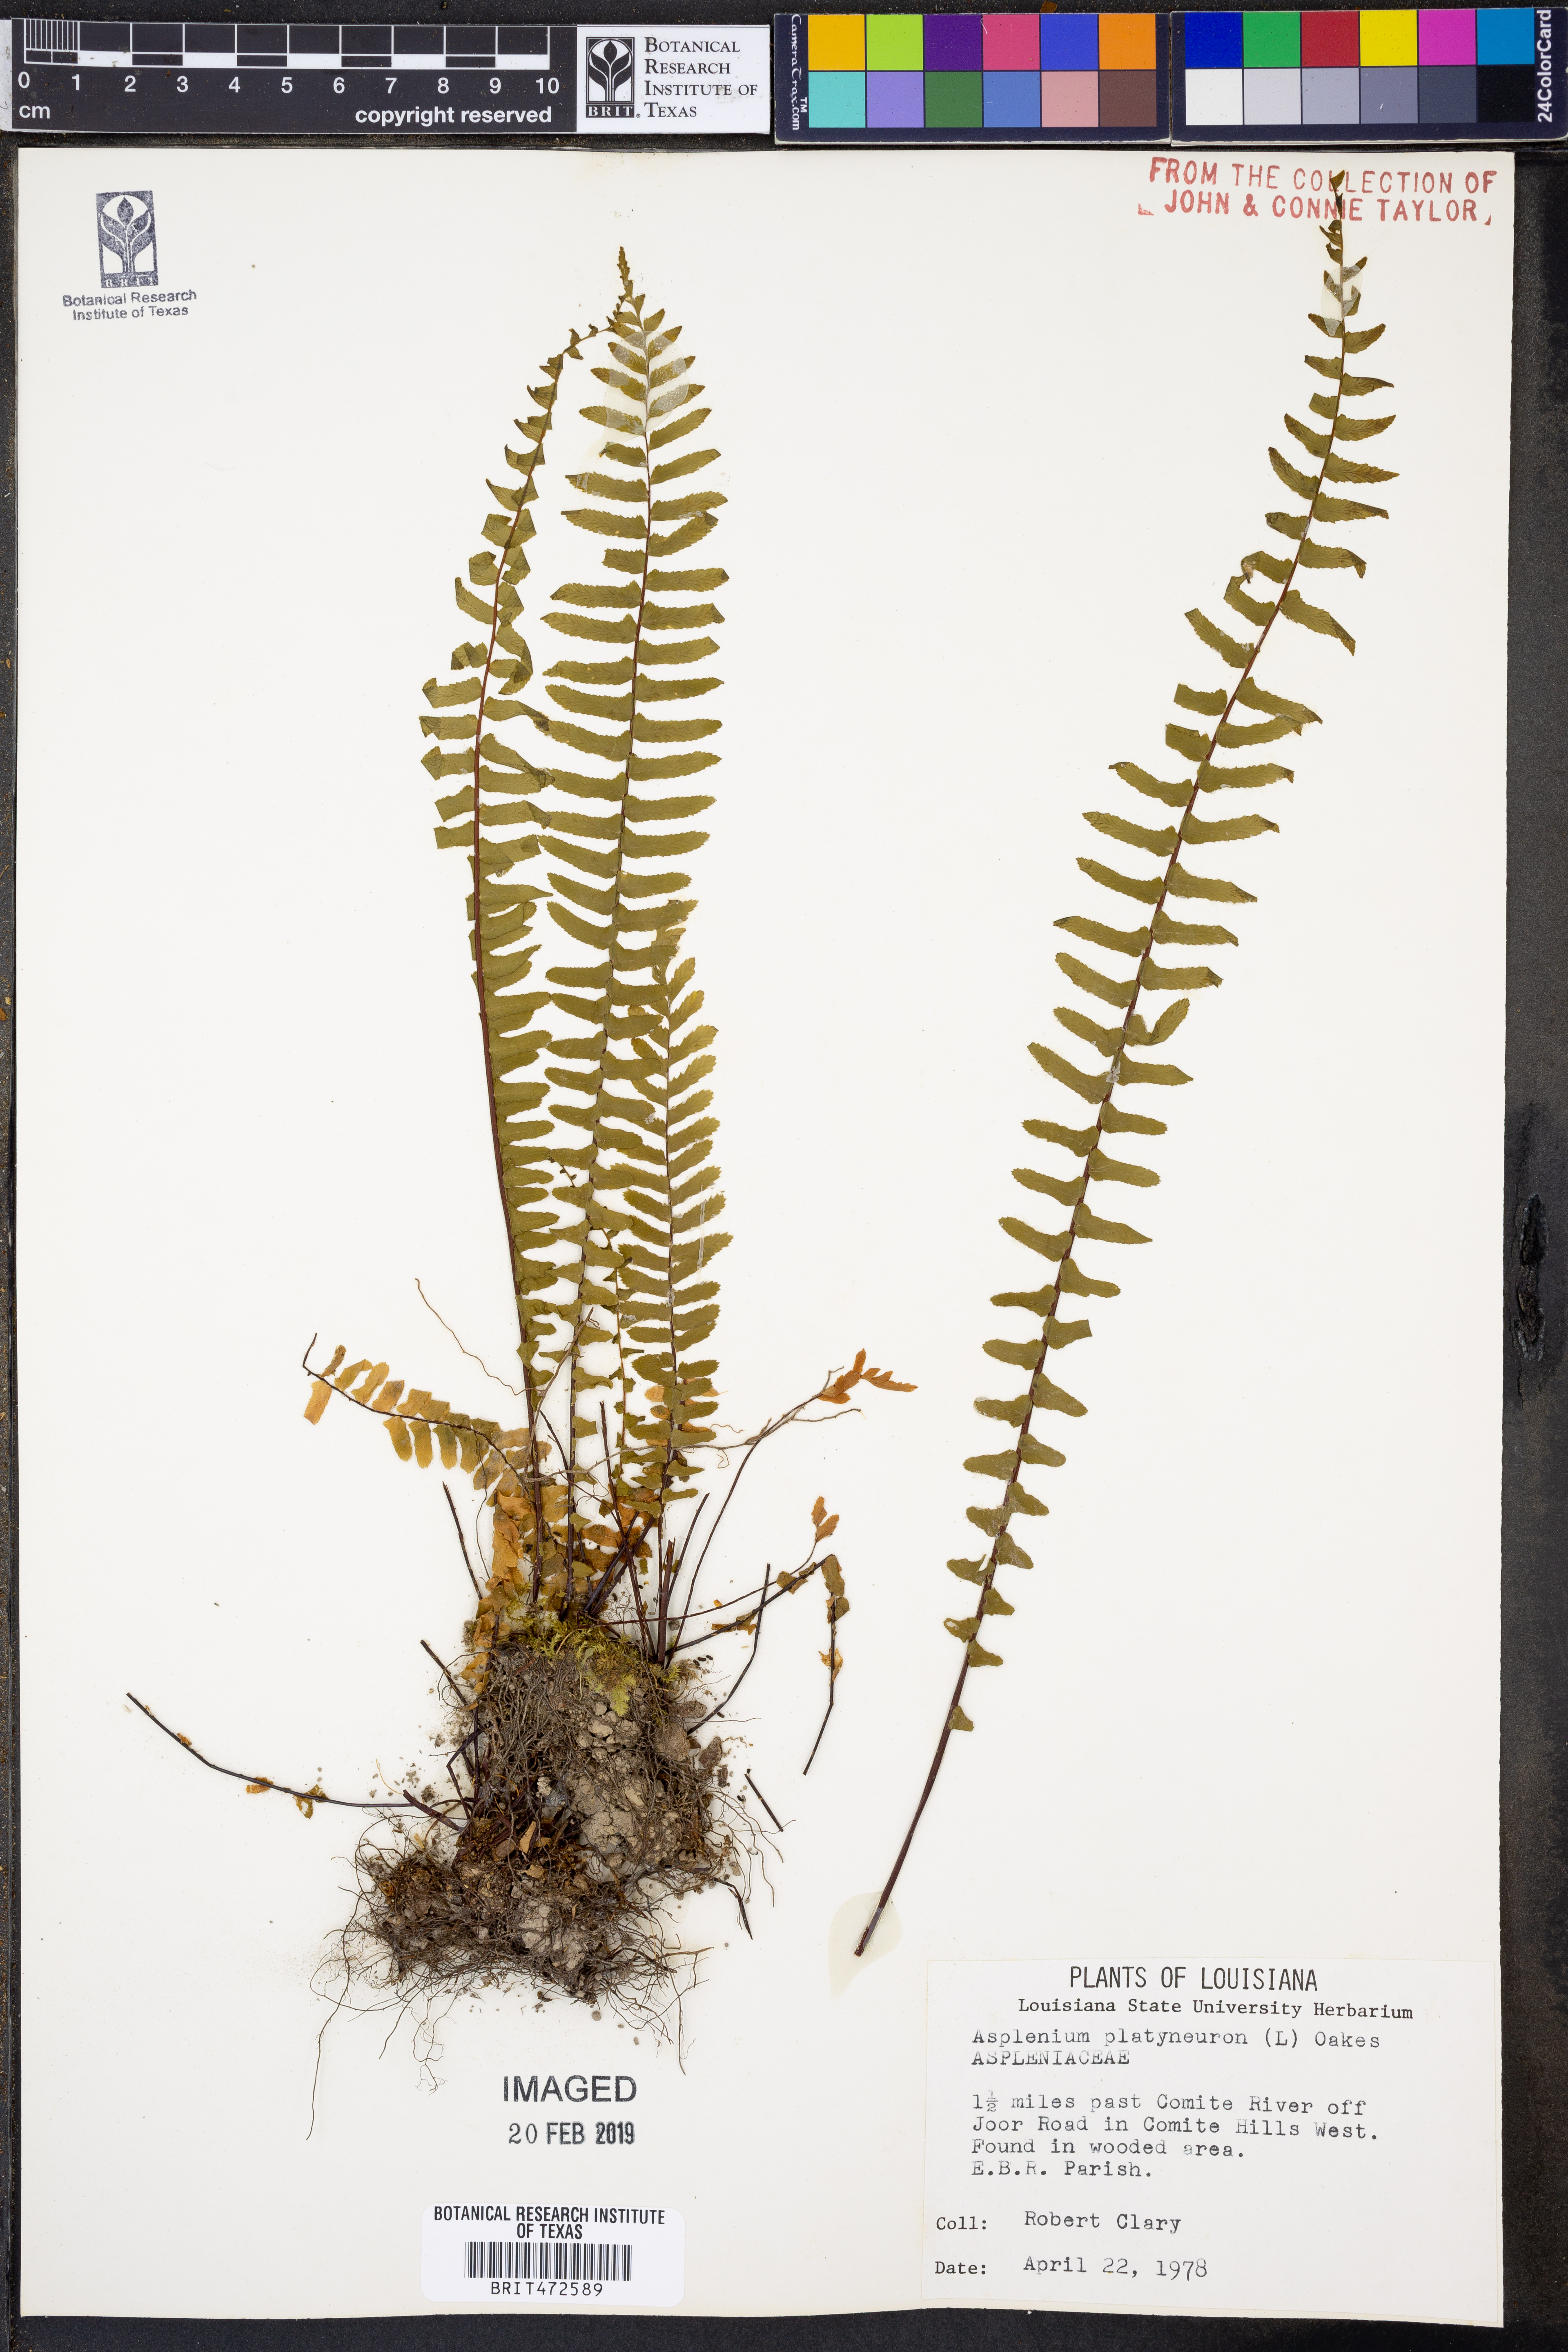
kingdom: Plantae
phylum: Tracheophyta
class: Polypodiopsida
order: Polypodiales
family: Aspleniaceae
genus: Asplenium
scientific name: Asplenium platyneuron
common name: Ebony spleenwort
